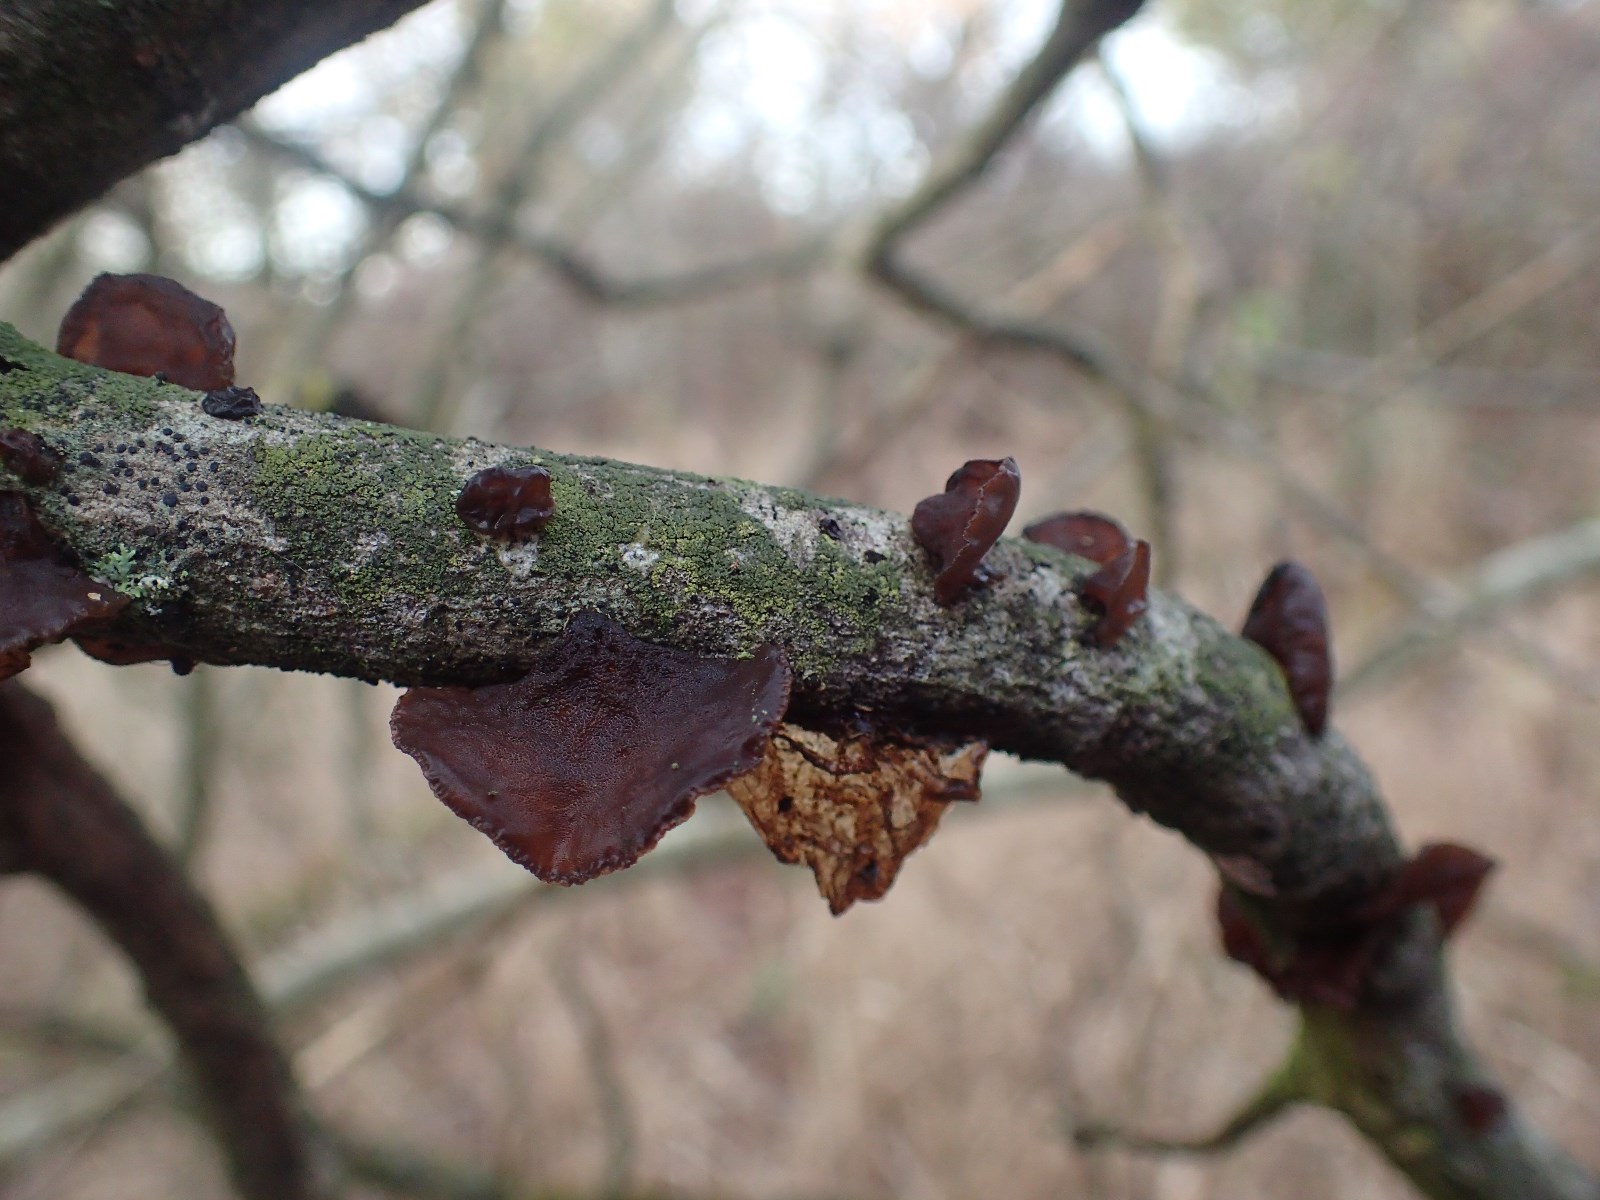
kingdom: Fungi
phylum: Basidiomycota
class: Agaricomycetes
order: Auriculariales
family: Auriculariaceae
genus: Exidia
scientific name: Exidia recisa
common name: pile-bævretop
